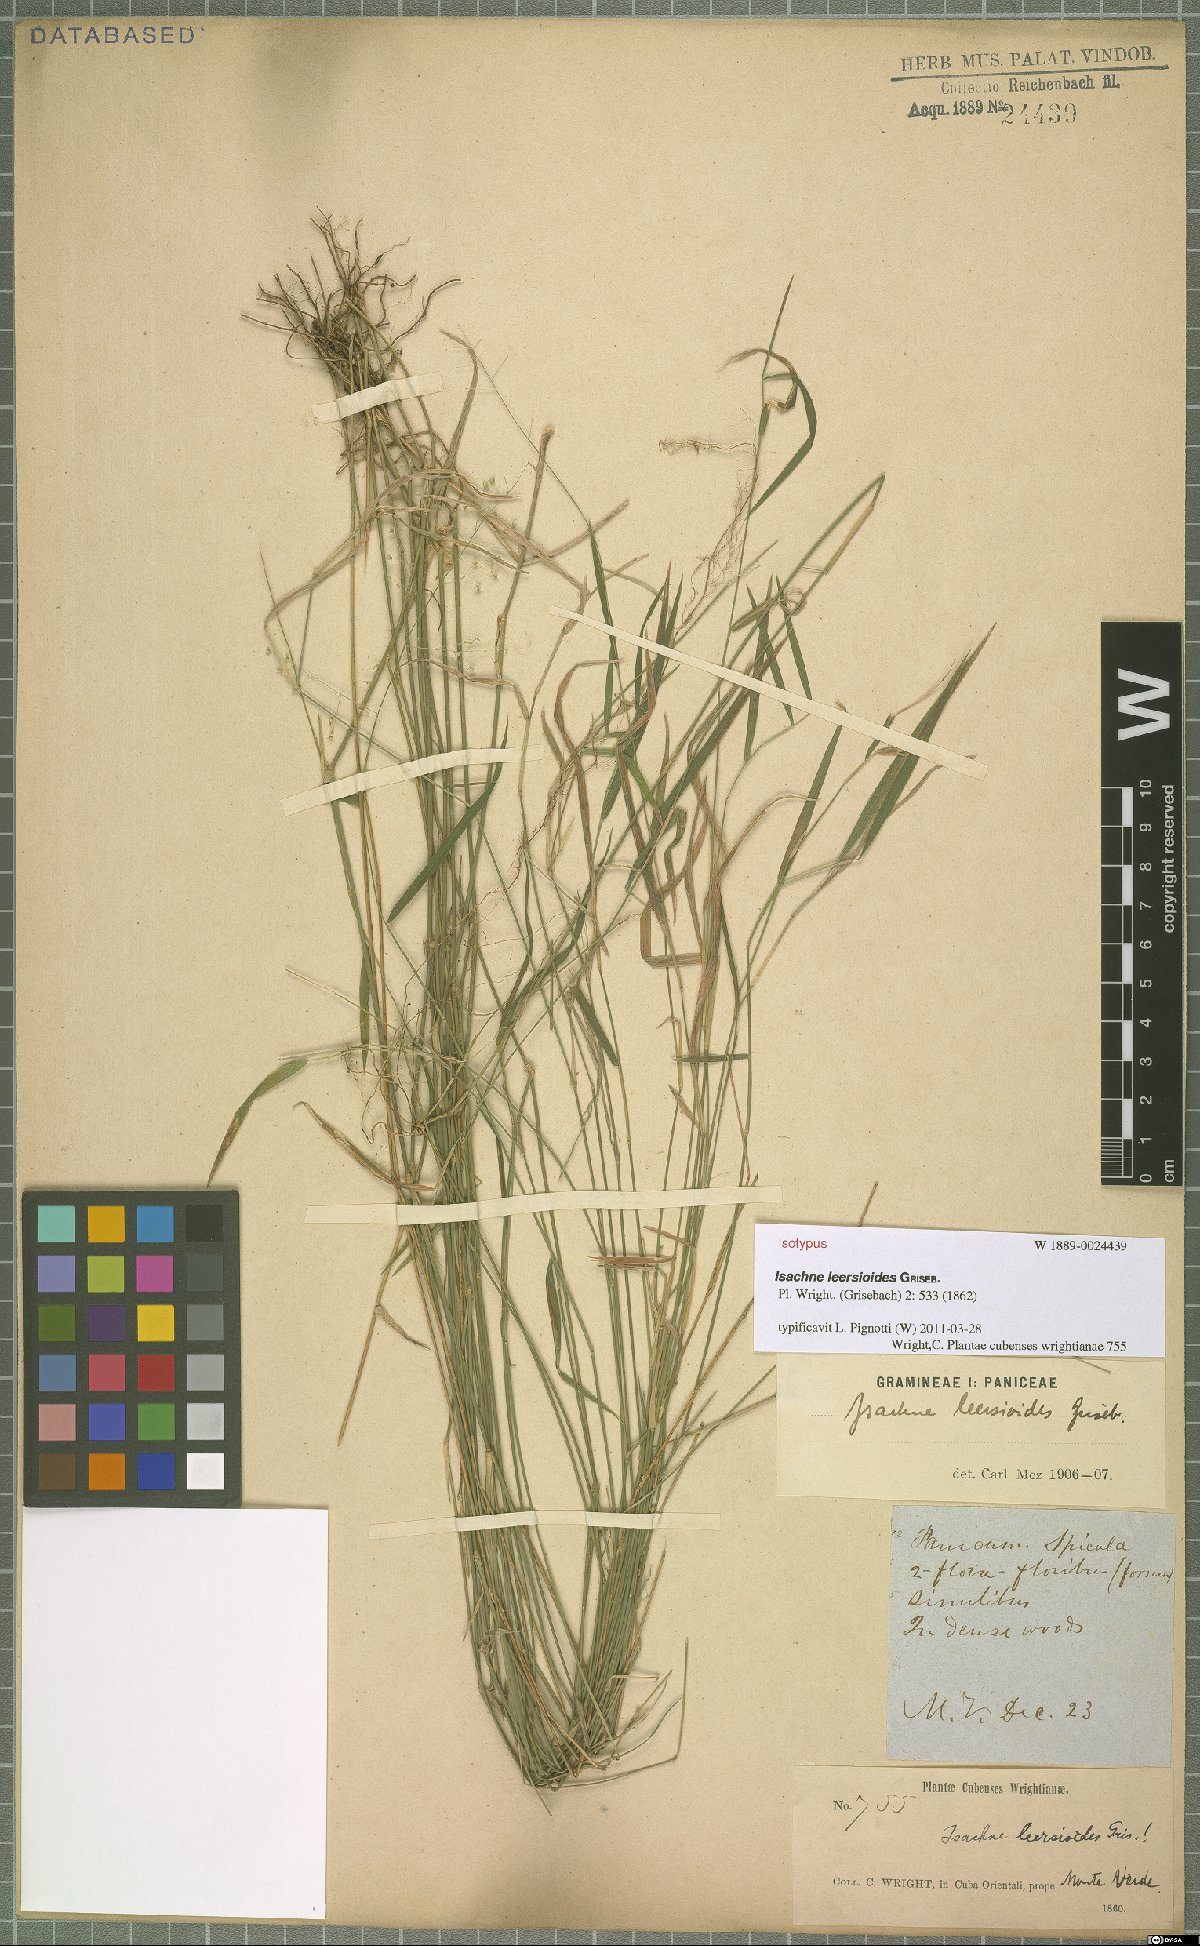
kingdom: Plantae
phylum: Tracheophyta
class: Liliopsida
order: Poales
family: Poaceae
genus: Isachne
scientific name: Isachne leersioides
